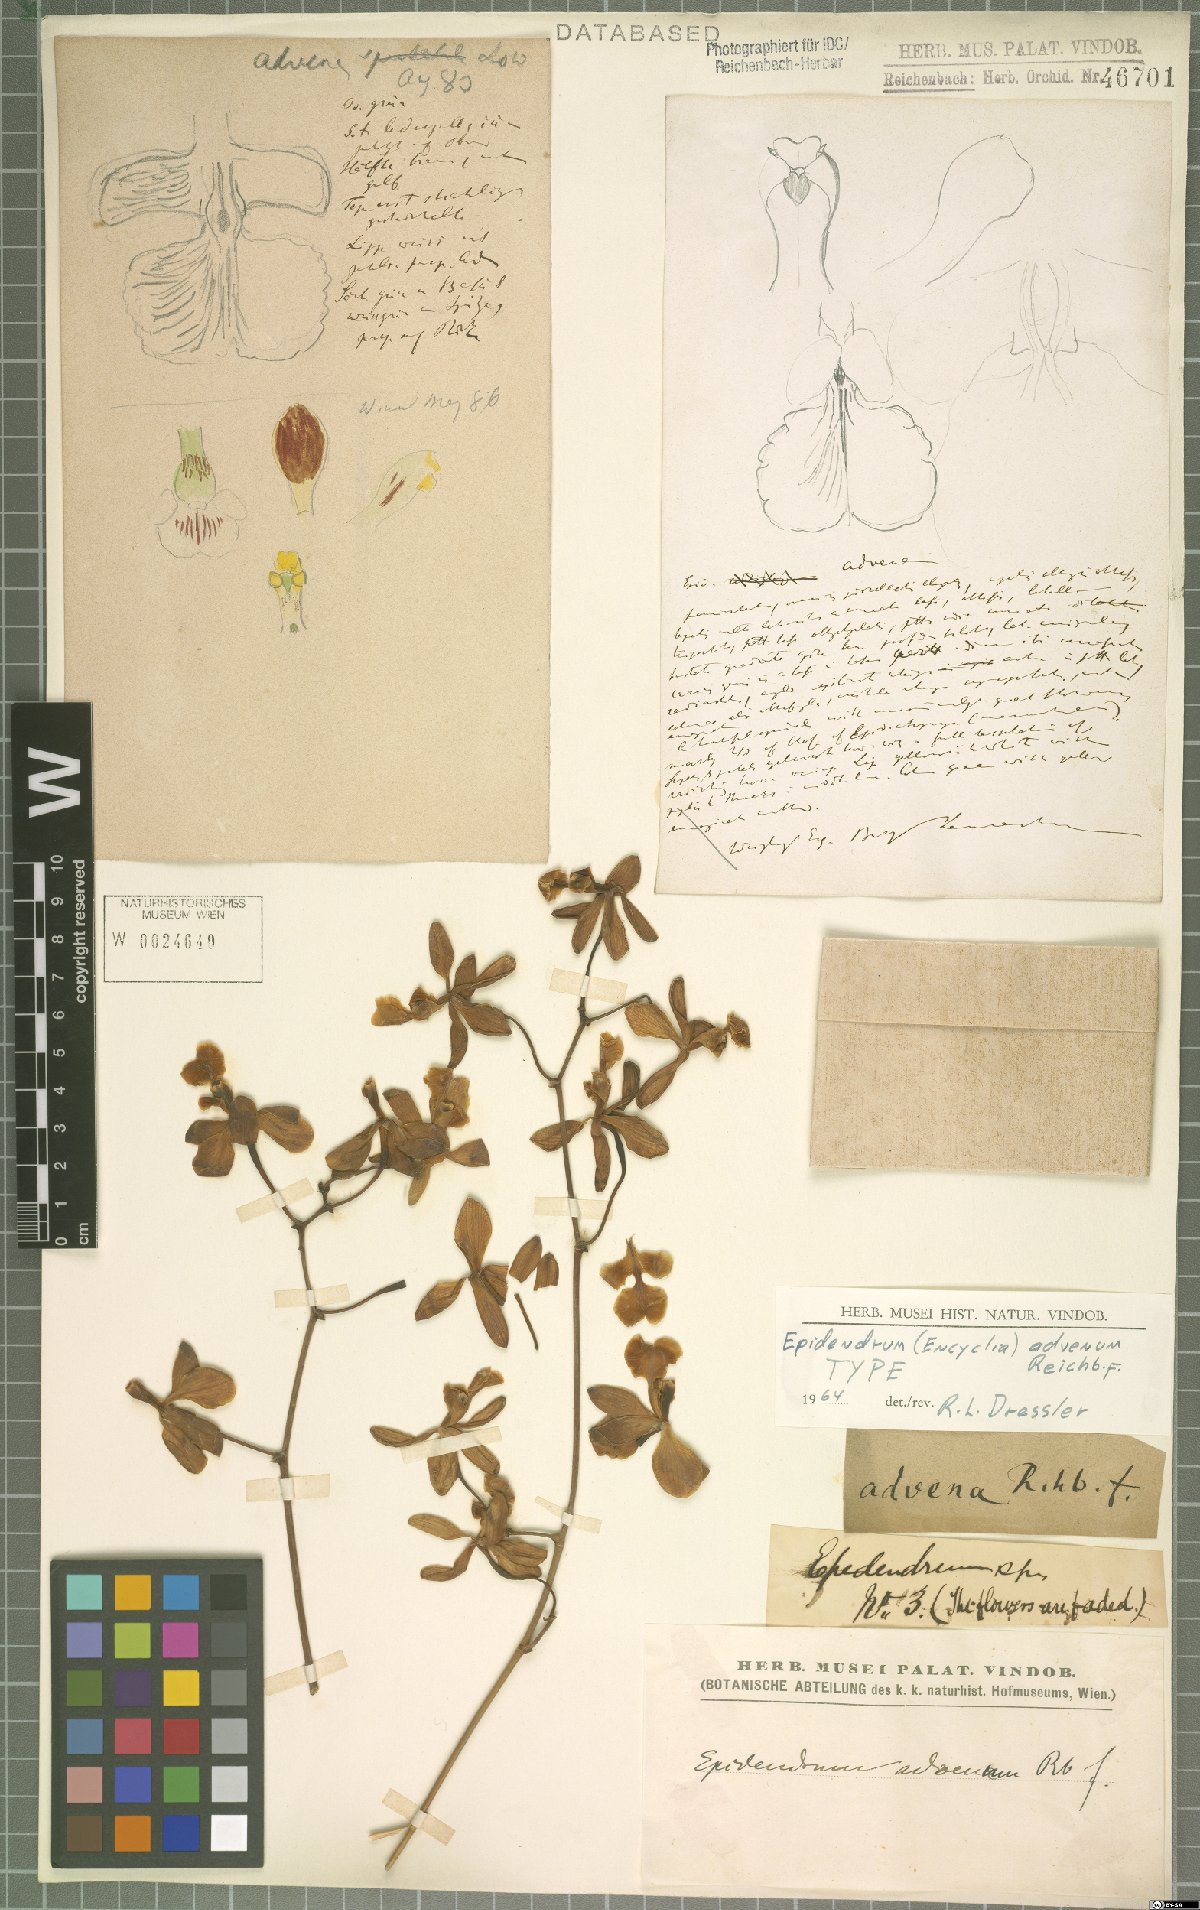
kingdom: Plantae
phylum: Tracheophyta
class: Liliopsida
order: Asparagales
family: Orchidaceae
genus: Encyclia
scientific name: Encyclia advena
